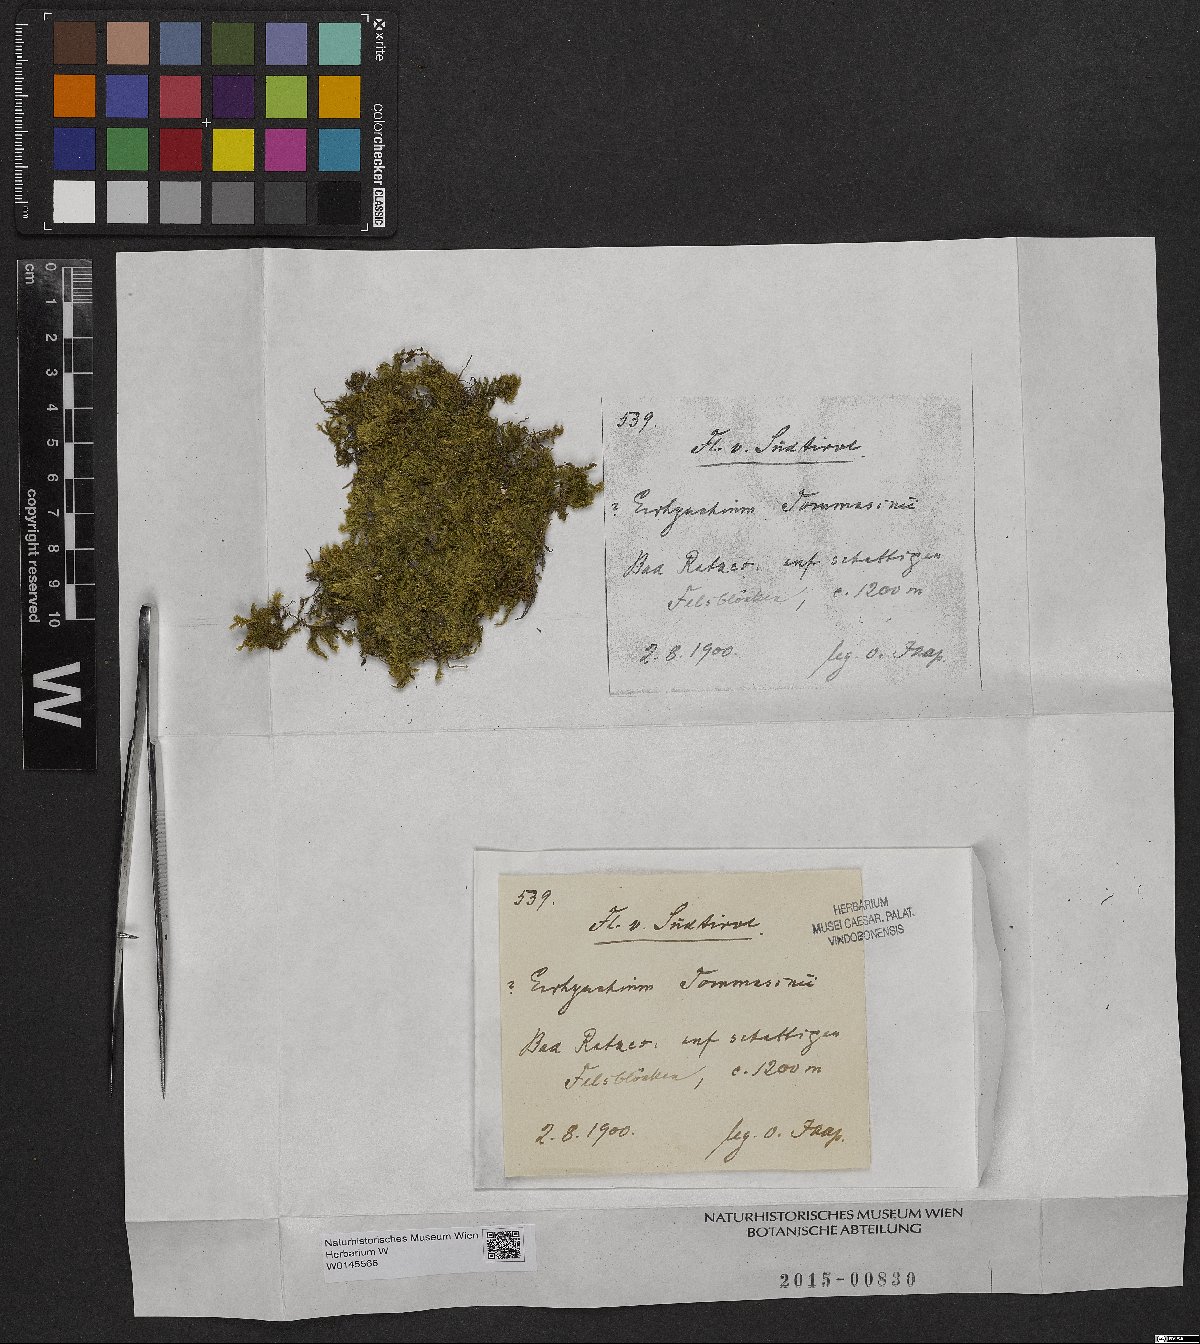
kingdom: Plantae
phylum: Bryophyta
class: Bryopsida
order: Hypnales
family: Brachytheciaceae
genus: Brachythecium
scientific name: Brachythecium tommasinii
